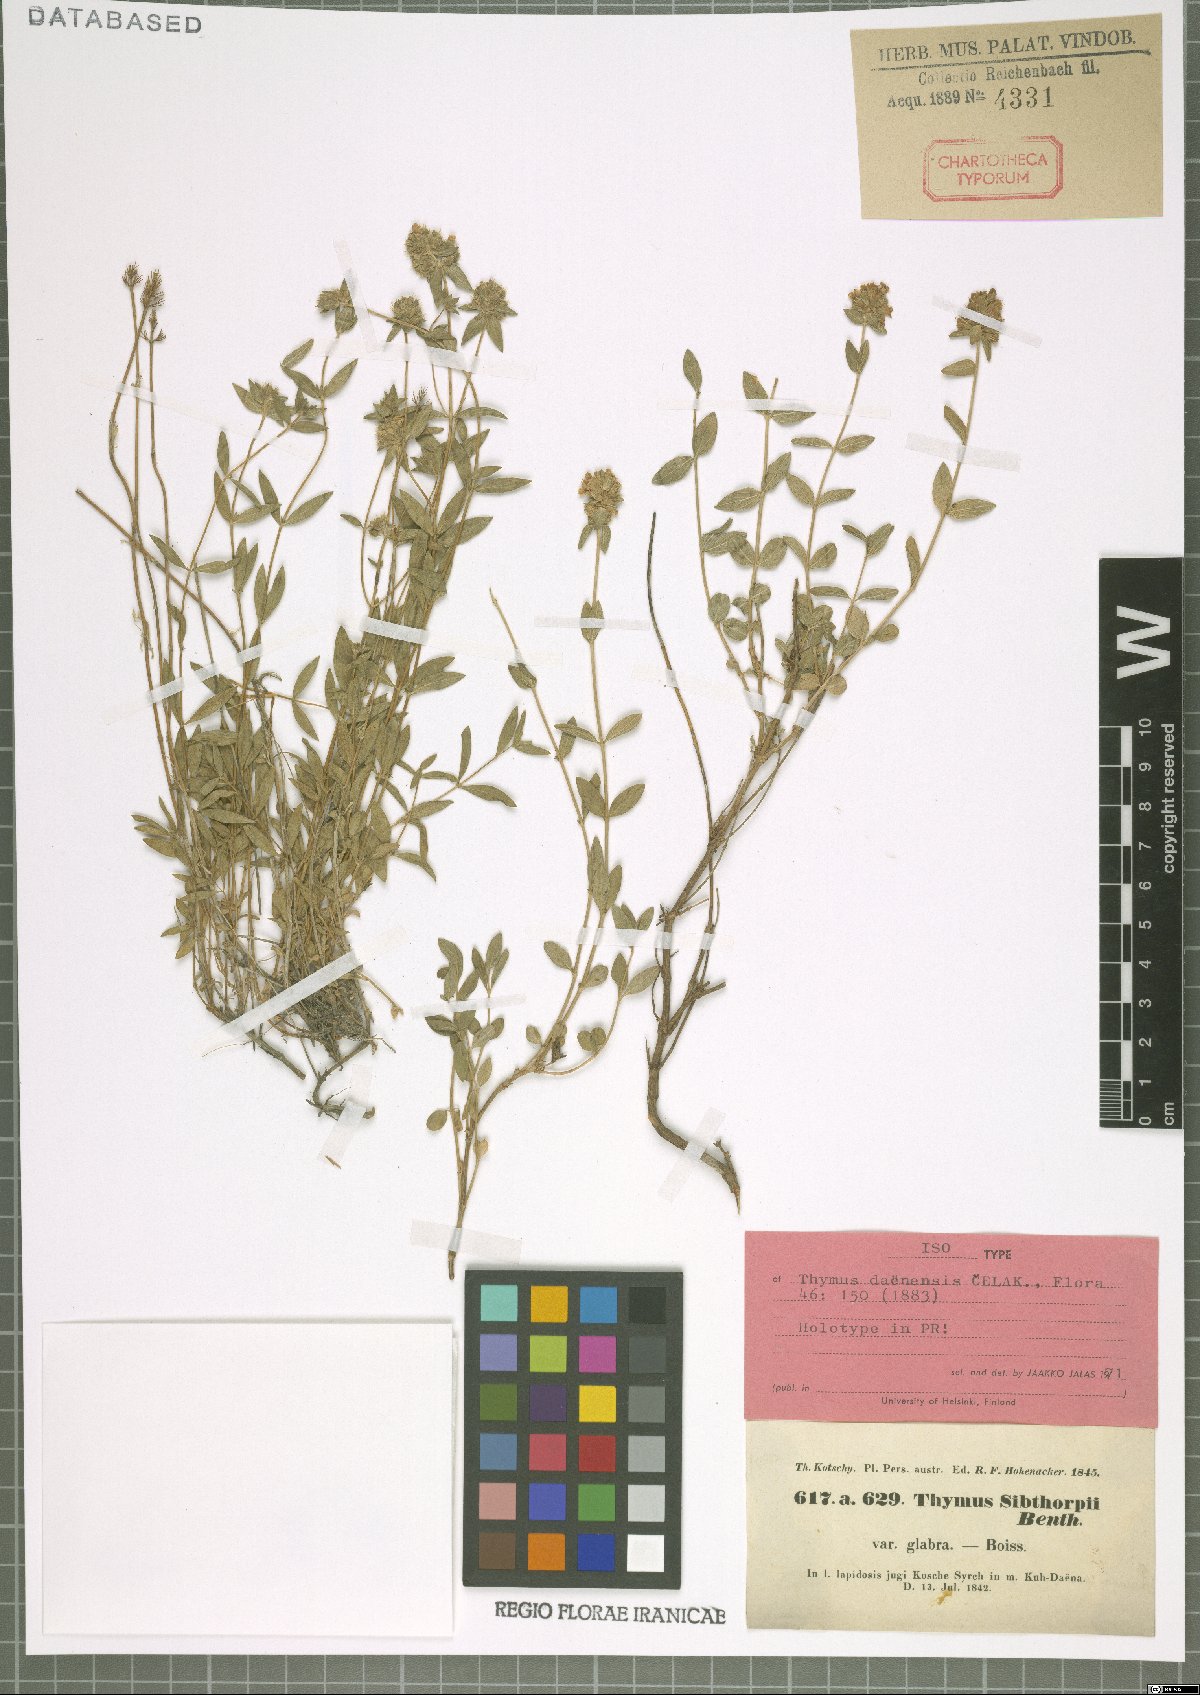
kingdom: Plantae
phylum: Tracheophyta
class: Magnoliopsida
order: Lamiales
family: Lamiaceae
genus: Thymus
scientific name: Thymus daenensis
